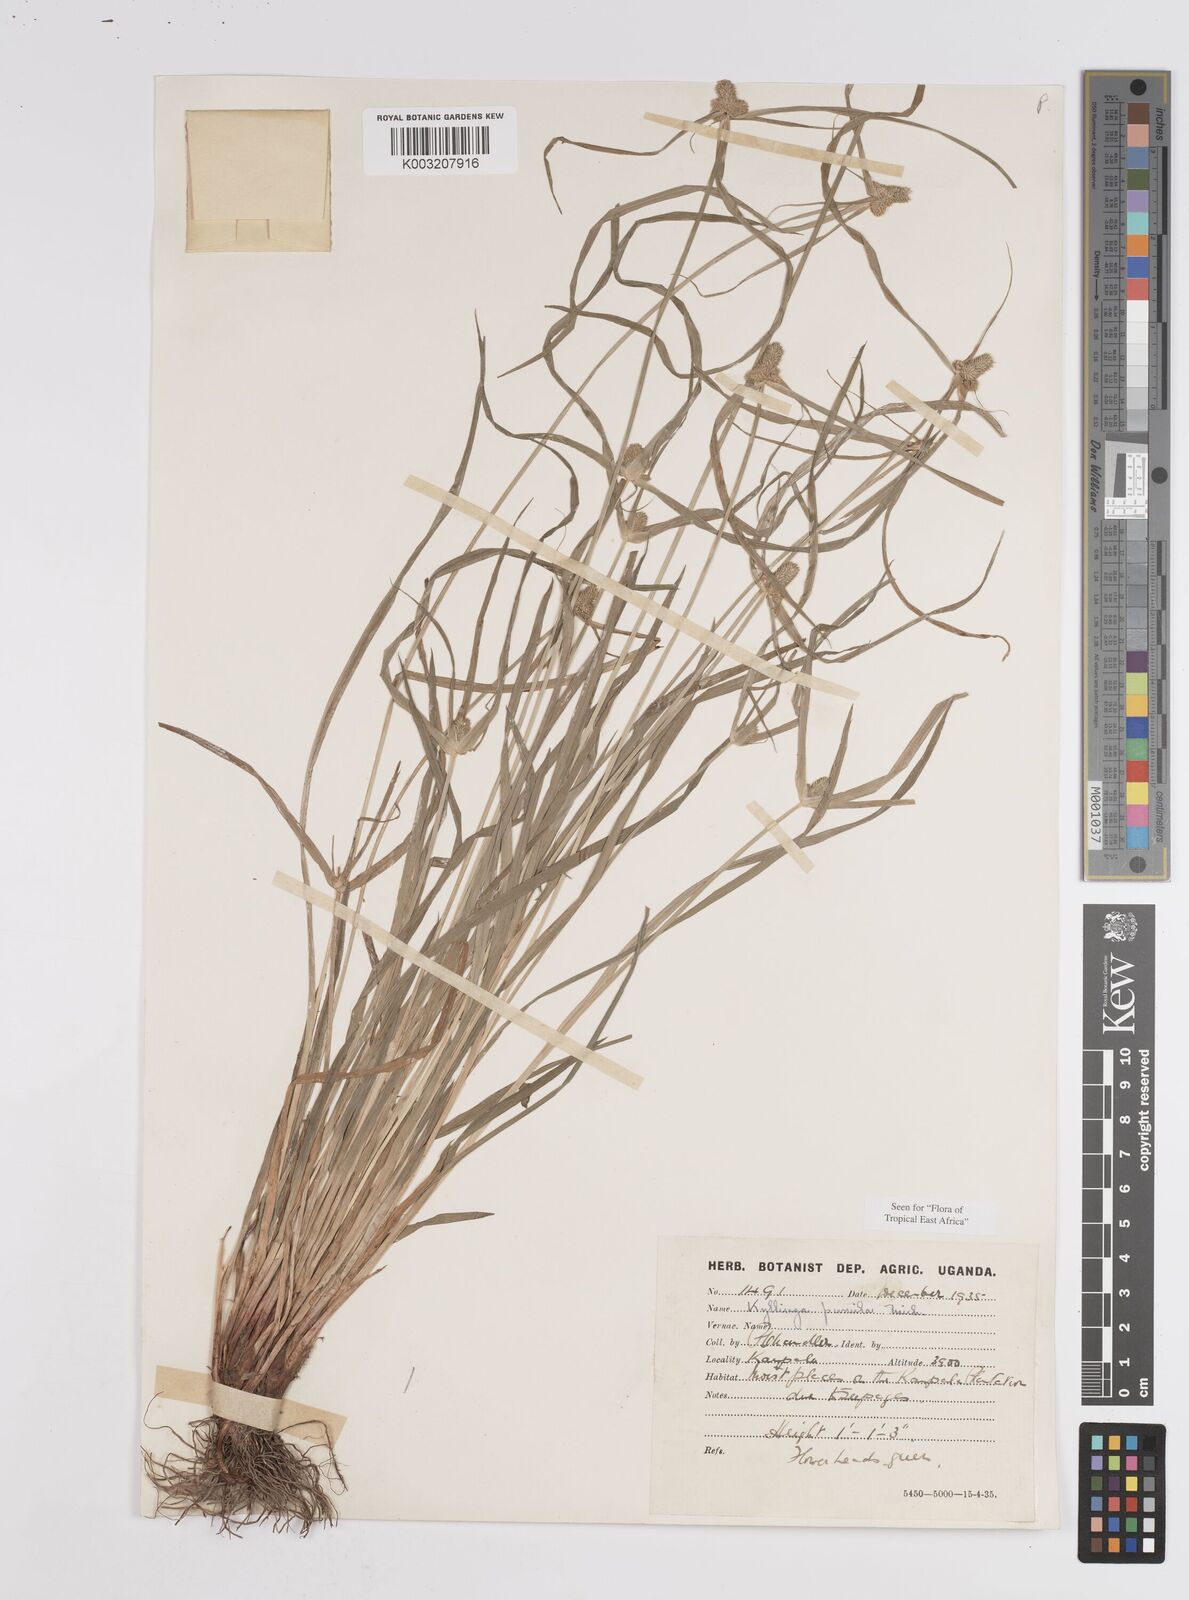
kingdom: Plantae
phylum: Tracheophyta
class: Liliopsida
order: Poales
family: Cyperaceae
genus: Cyperus
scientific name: Cyperus
